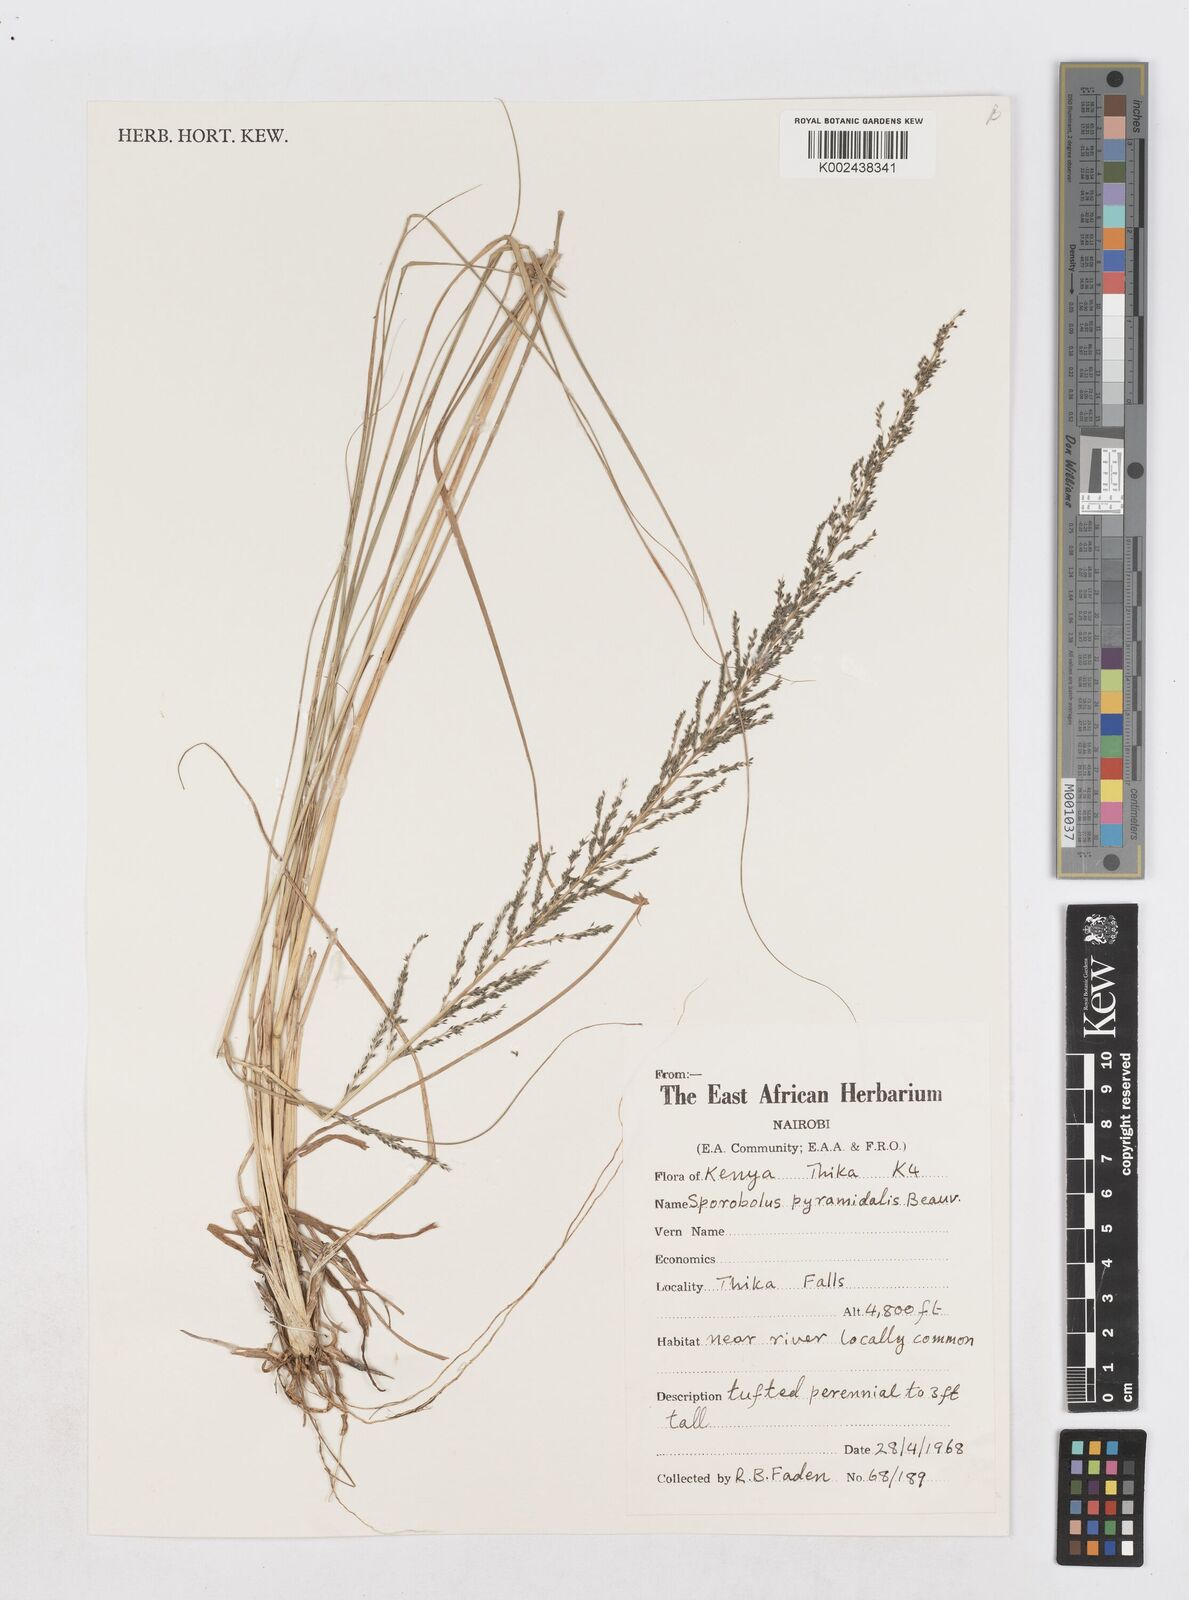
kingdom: Plantae
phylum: Tracheophyta
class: Liliopsida
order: Poales
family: Poaceae
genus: Sporobolus
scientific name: Sporobolus pyramidalis
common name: West indian dropseed
